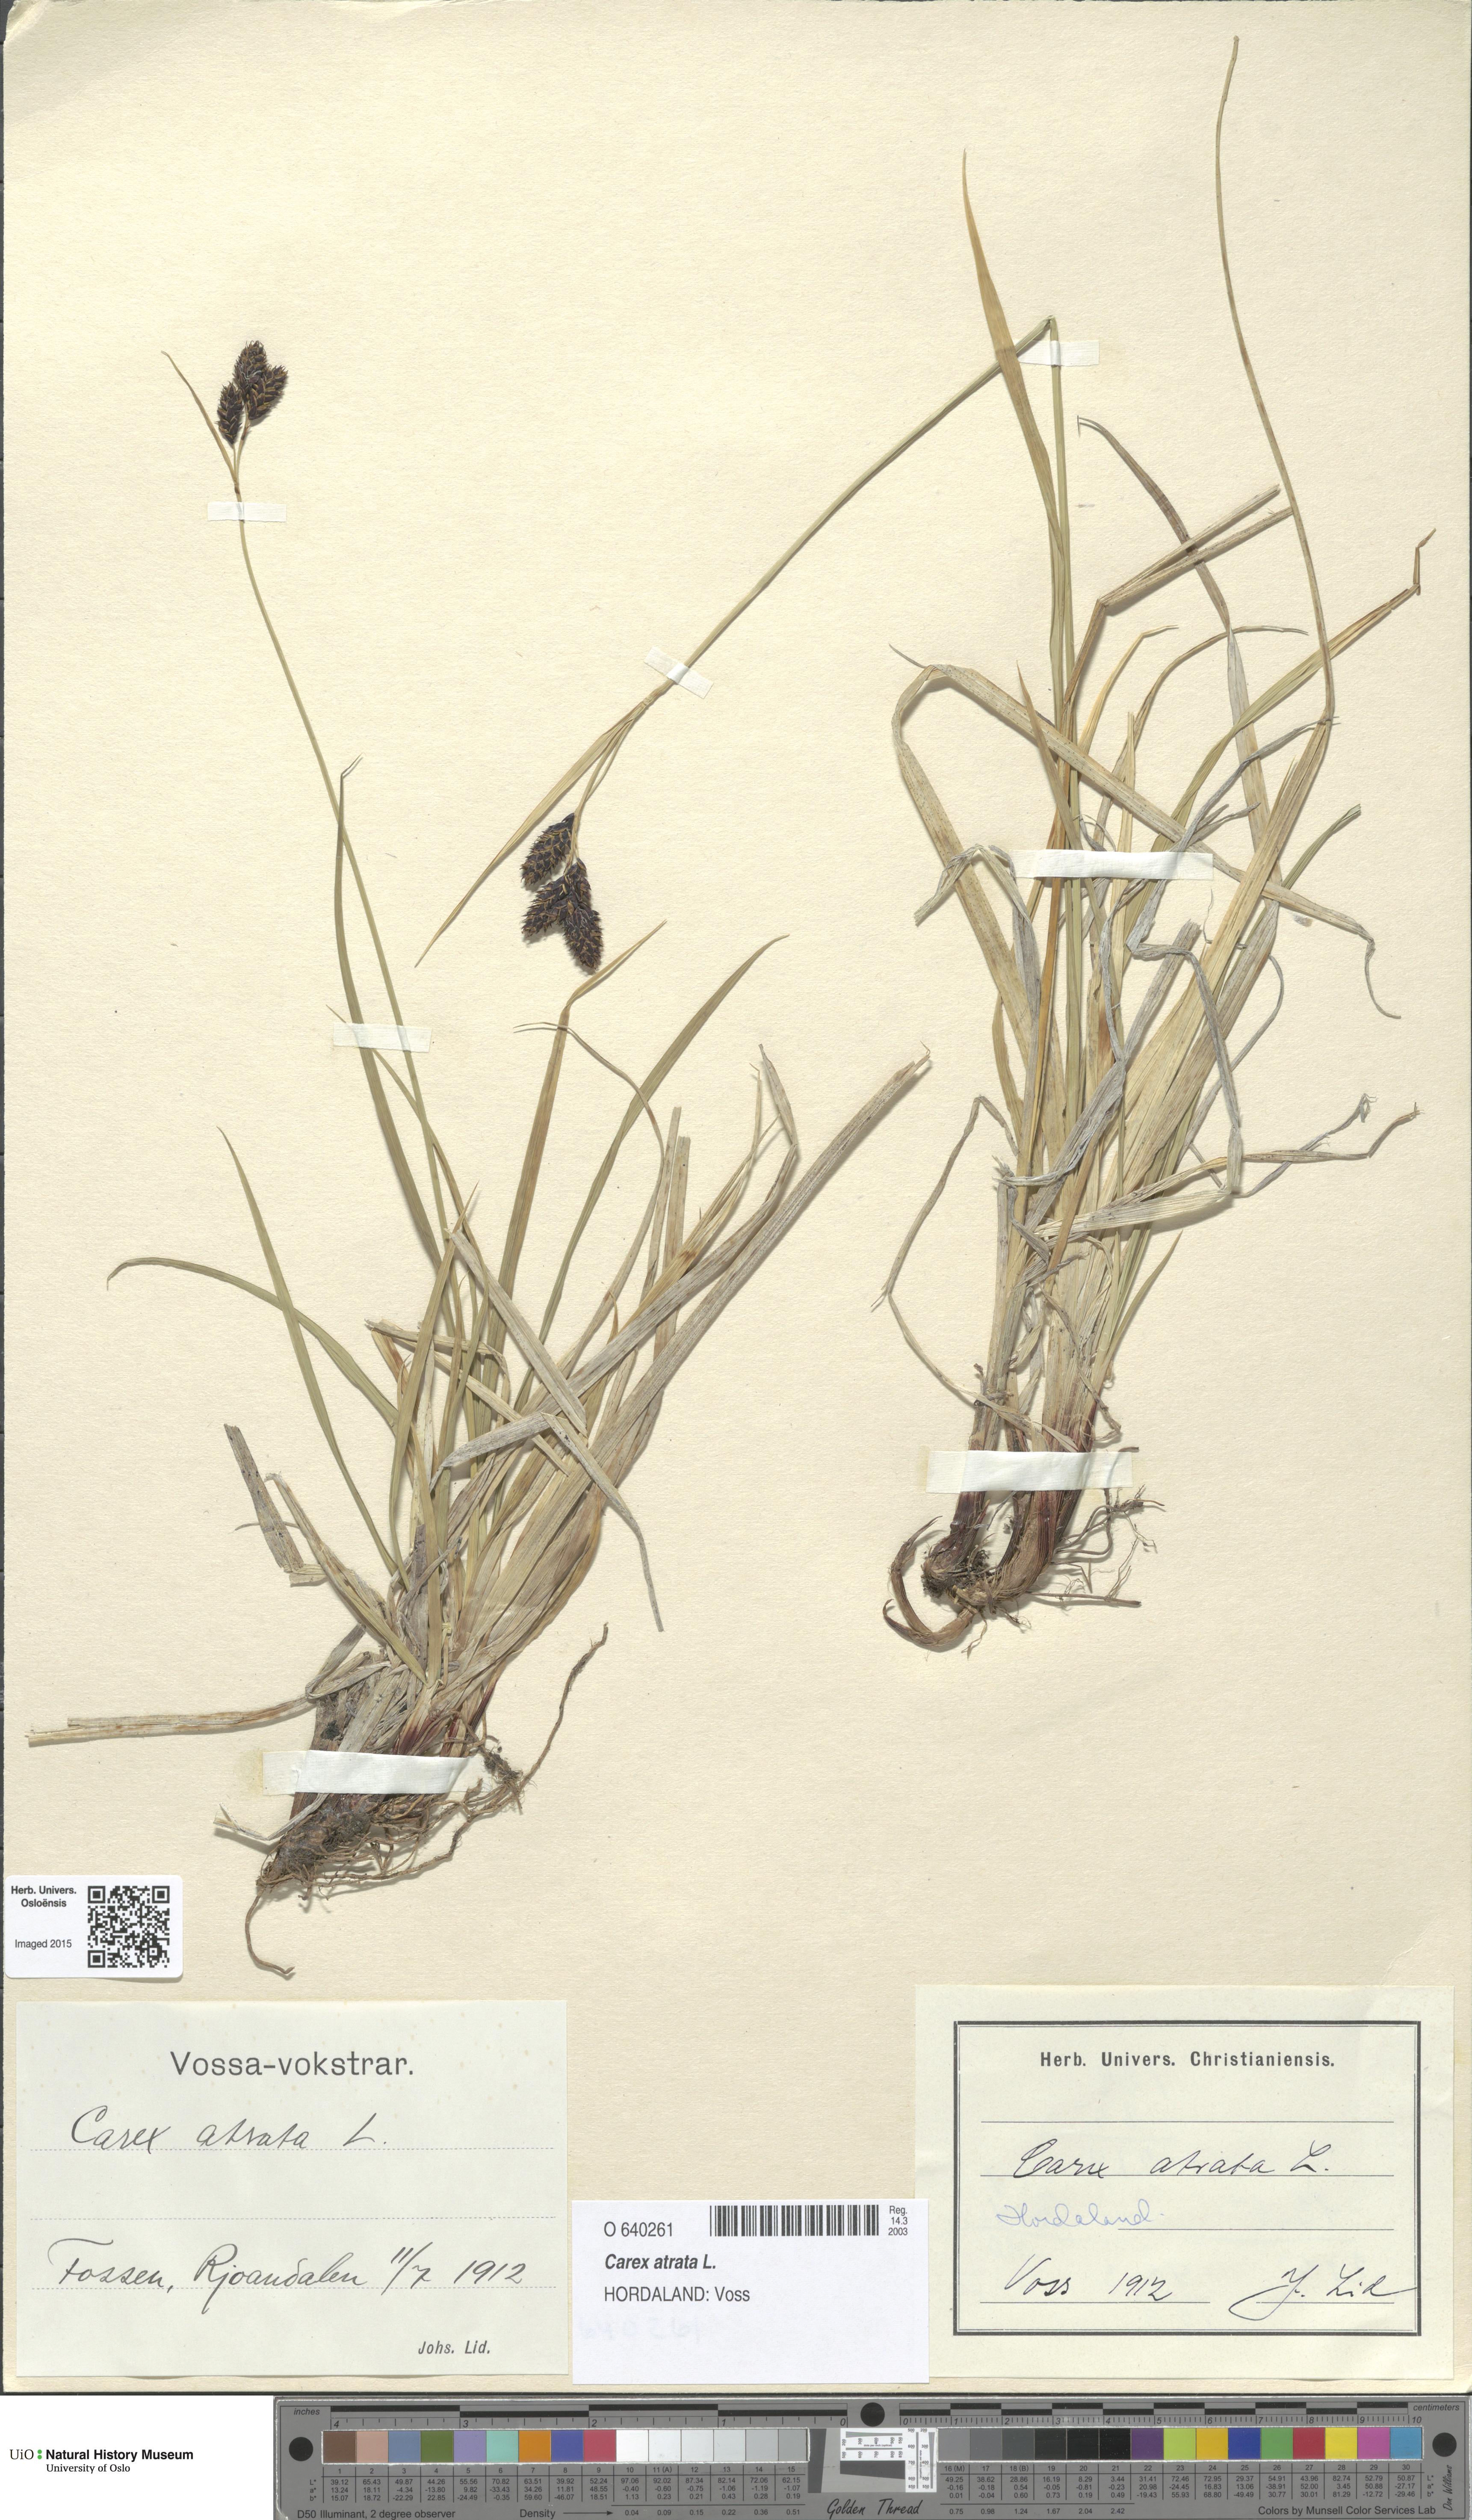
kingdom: Plantae
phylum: Tracheophyta
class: Liliopsida
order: Poales
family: Cyperaceae
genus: Carex
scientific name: Carex atrata
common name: Black alpine sedge
